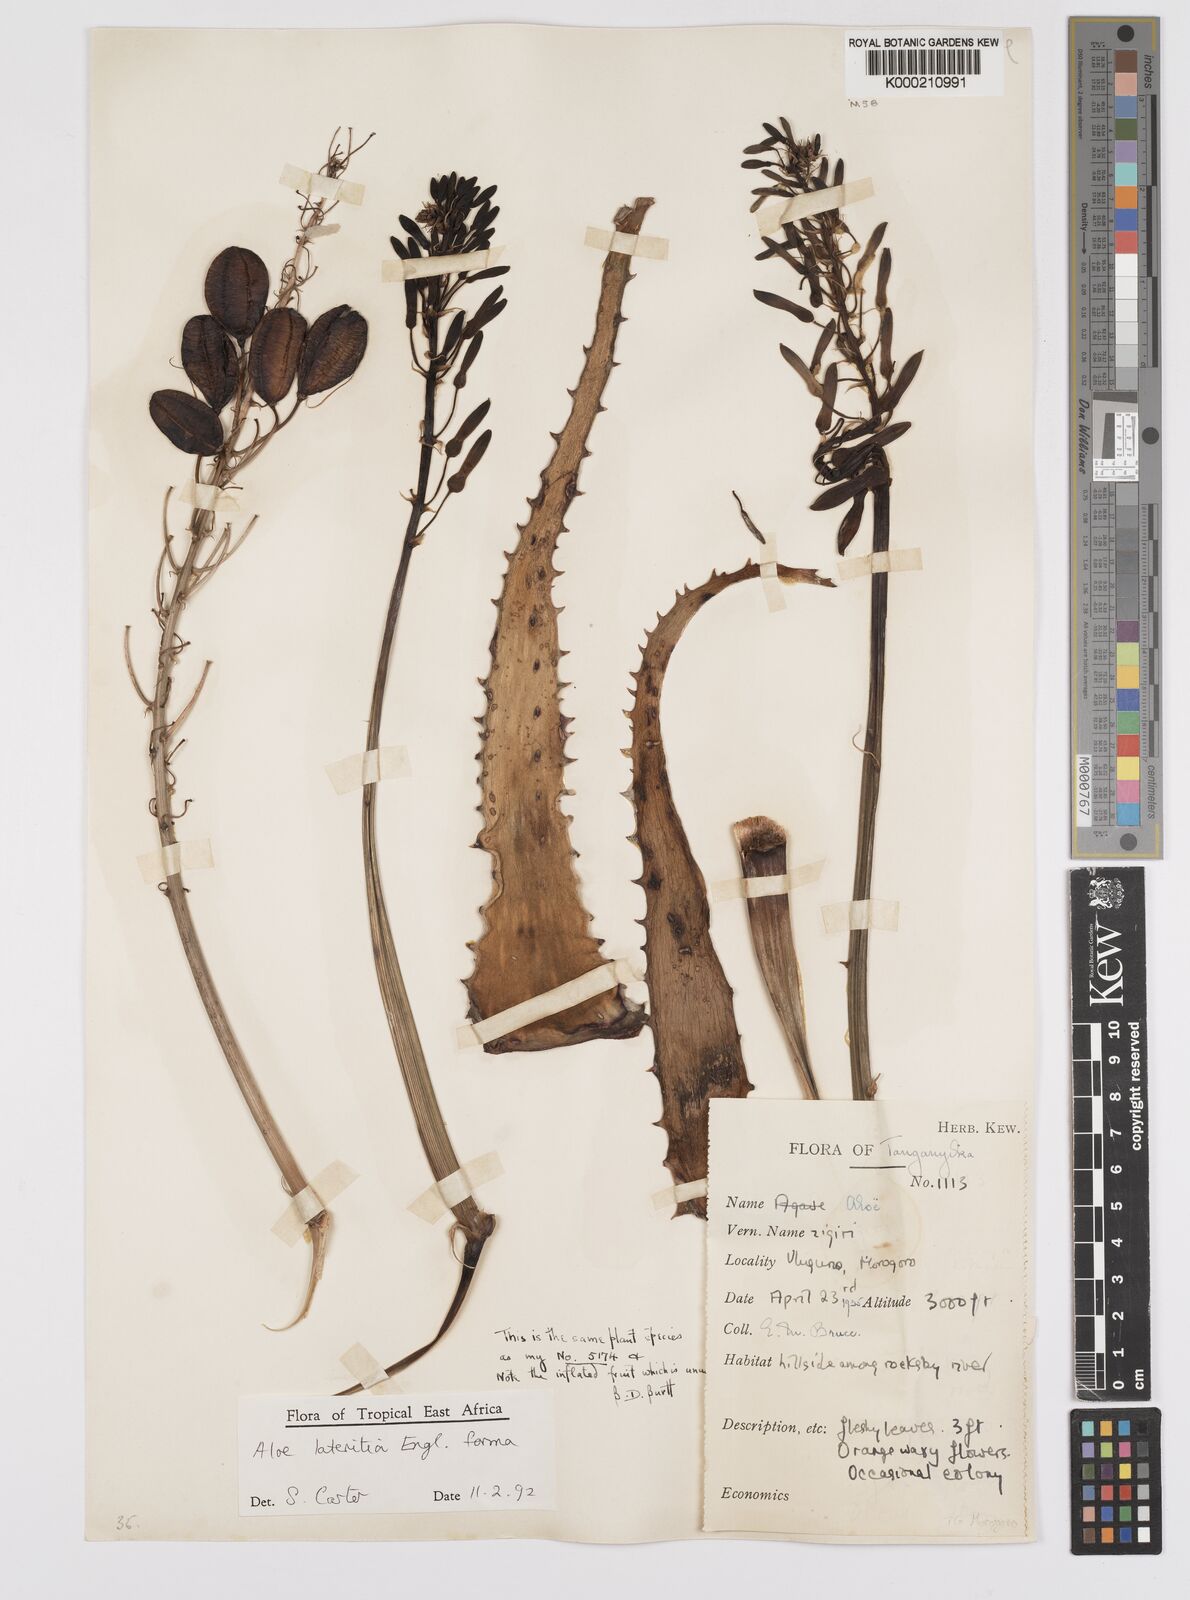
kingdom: Plantae
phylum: Tracheophyta
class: Liliopsida
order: Asparagales
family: Asphodelaceae
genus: Aloe
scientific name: Aloe lateritia
